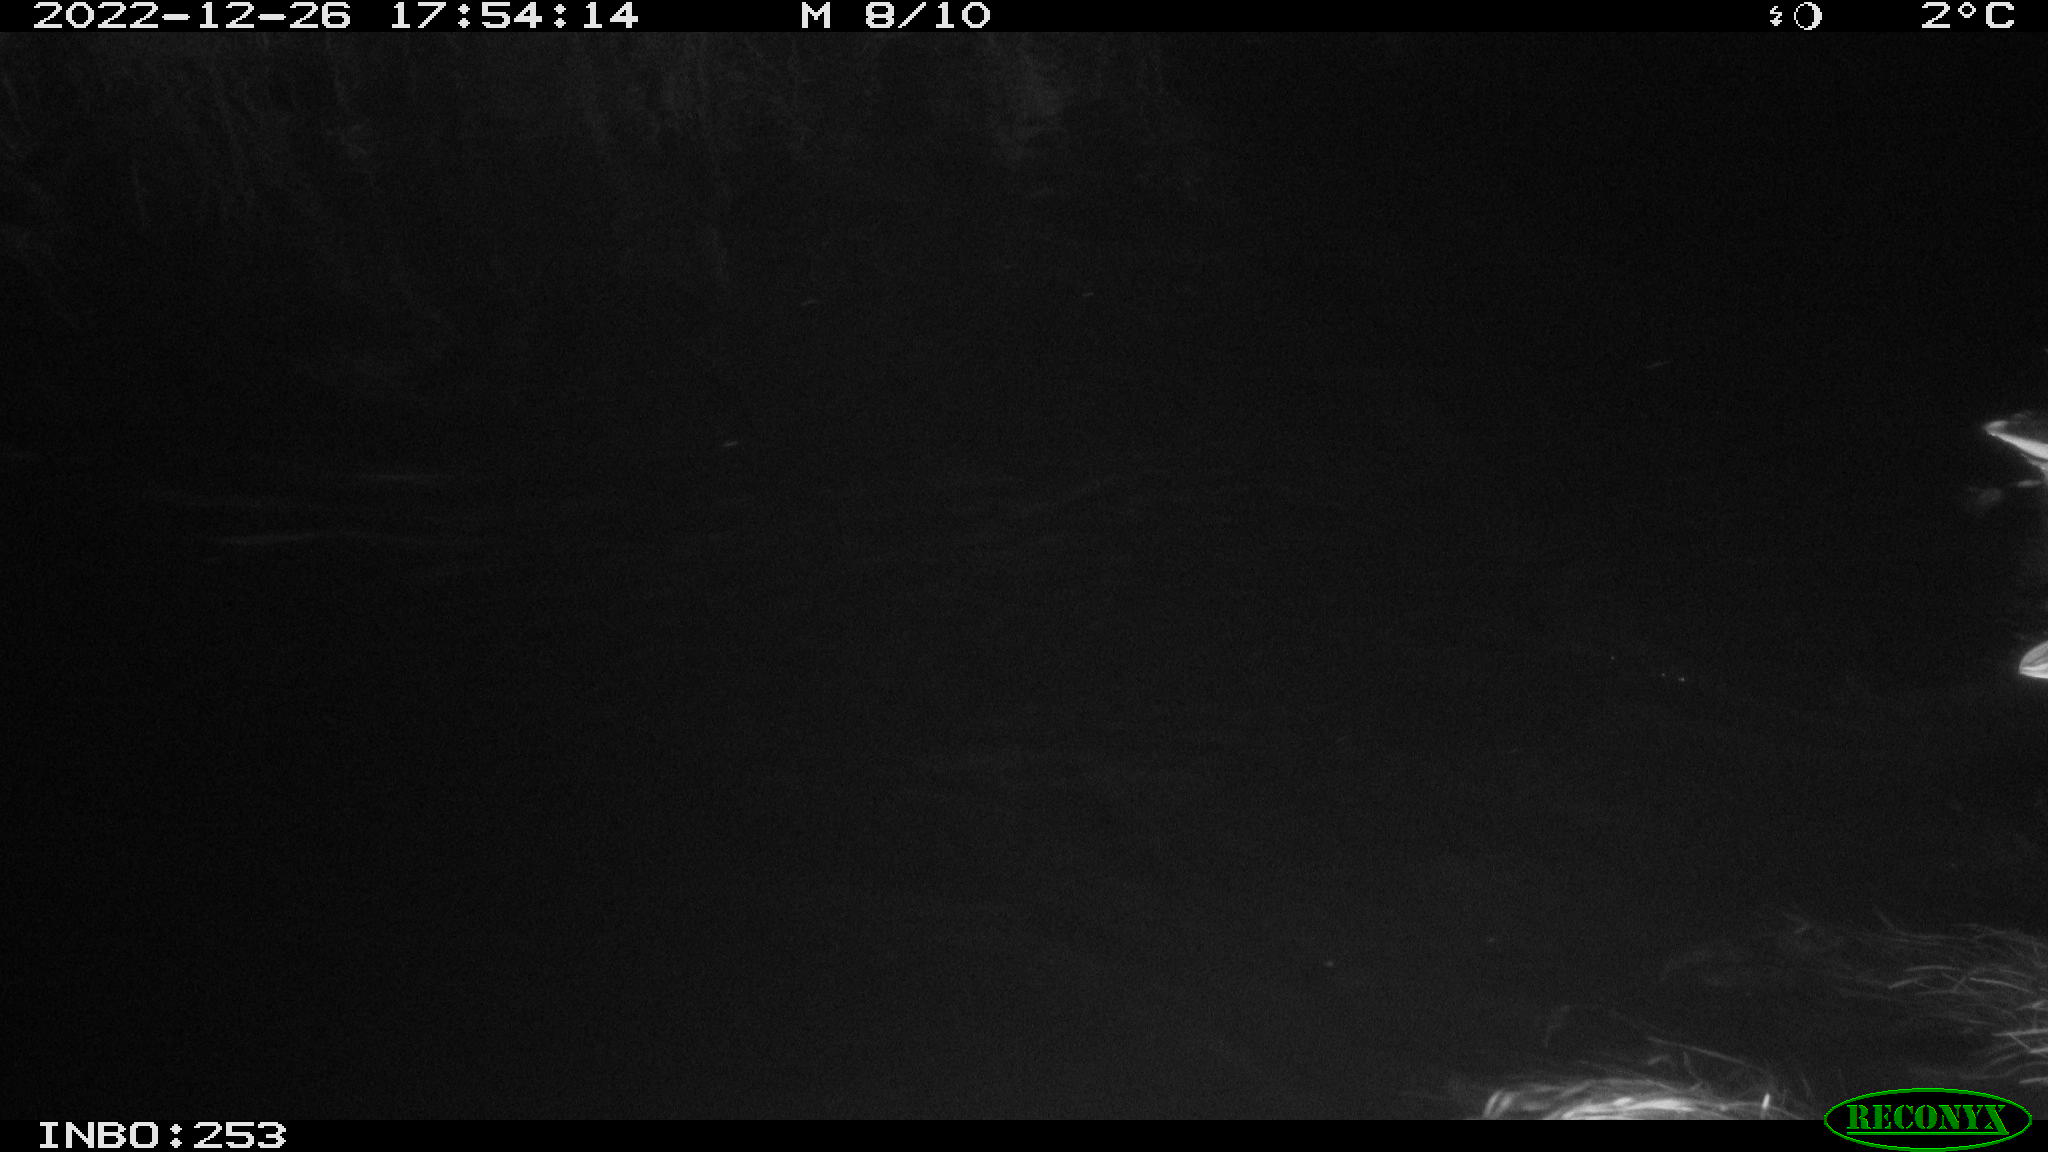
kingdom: Animalia
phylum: Chordata
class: Aves
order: Anseriformes
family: Anatidae
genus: Anas
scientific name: Anas platyrhynchos
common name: Mallard
